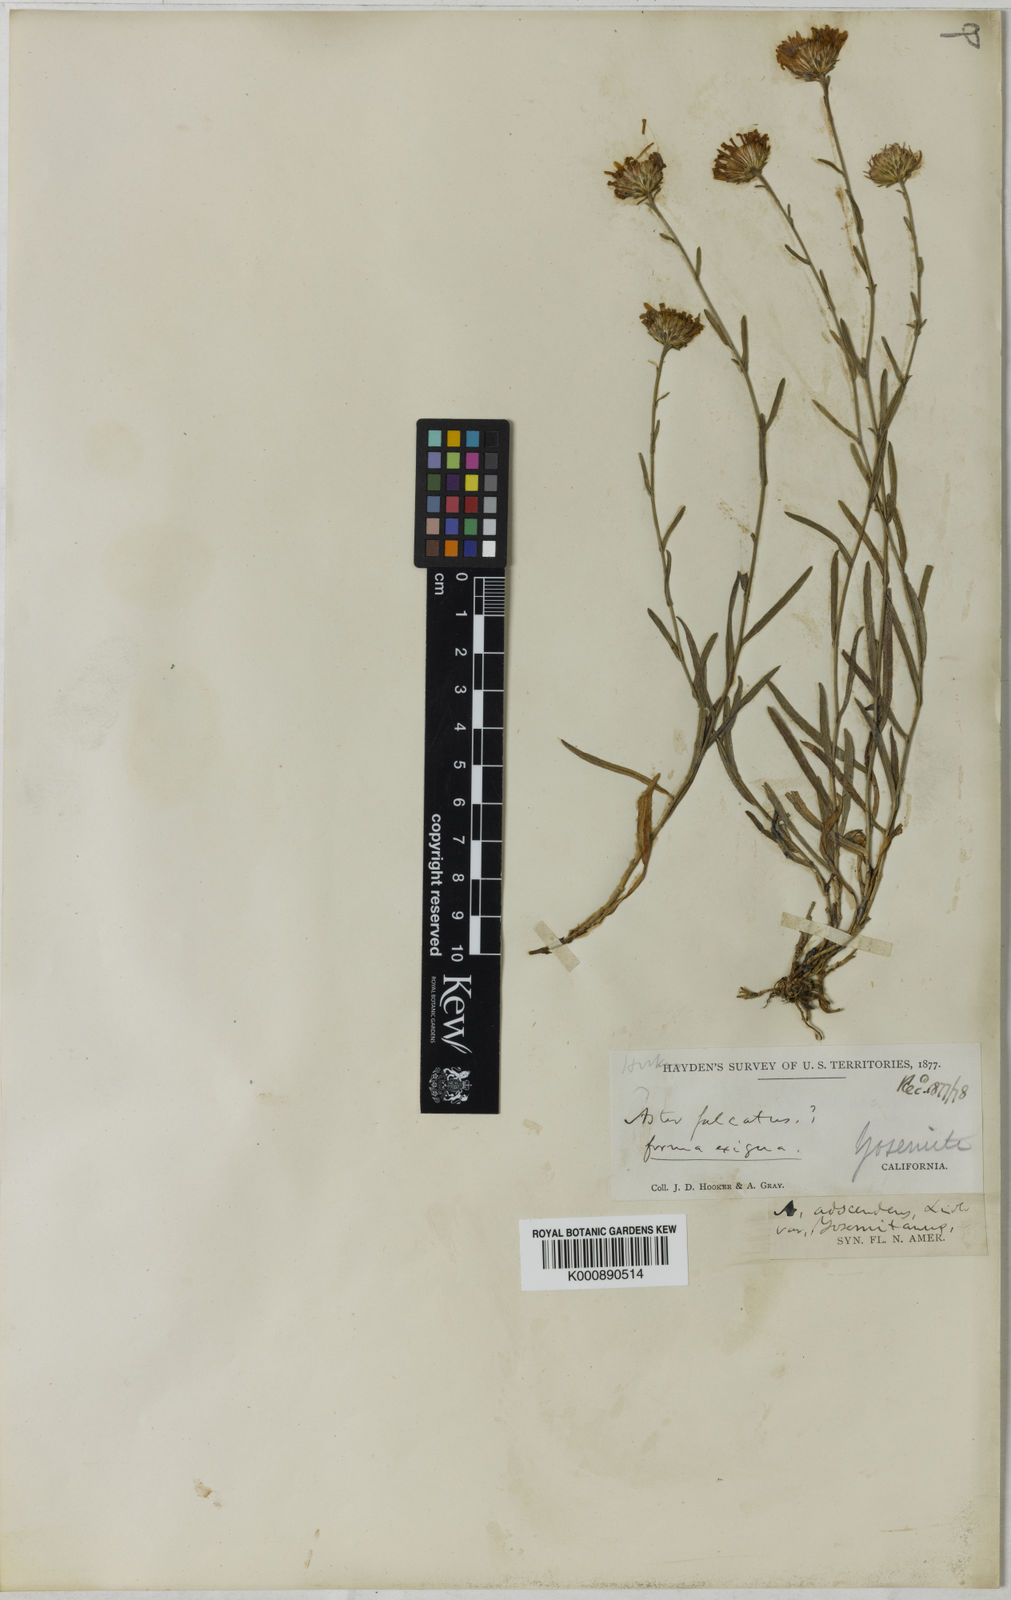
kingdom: Plantae
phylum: Tracheophyta
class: Magnoliopsida
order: Asterales
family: Asteraceae
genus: Symphyotrichum
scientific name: Symphyotrichum spathulatum
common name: Western mountain aster
